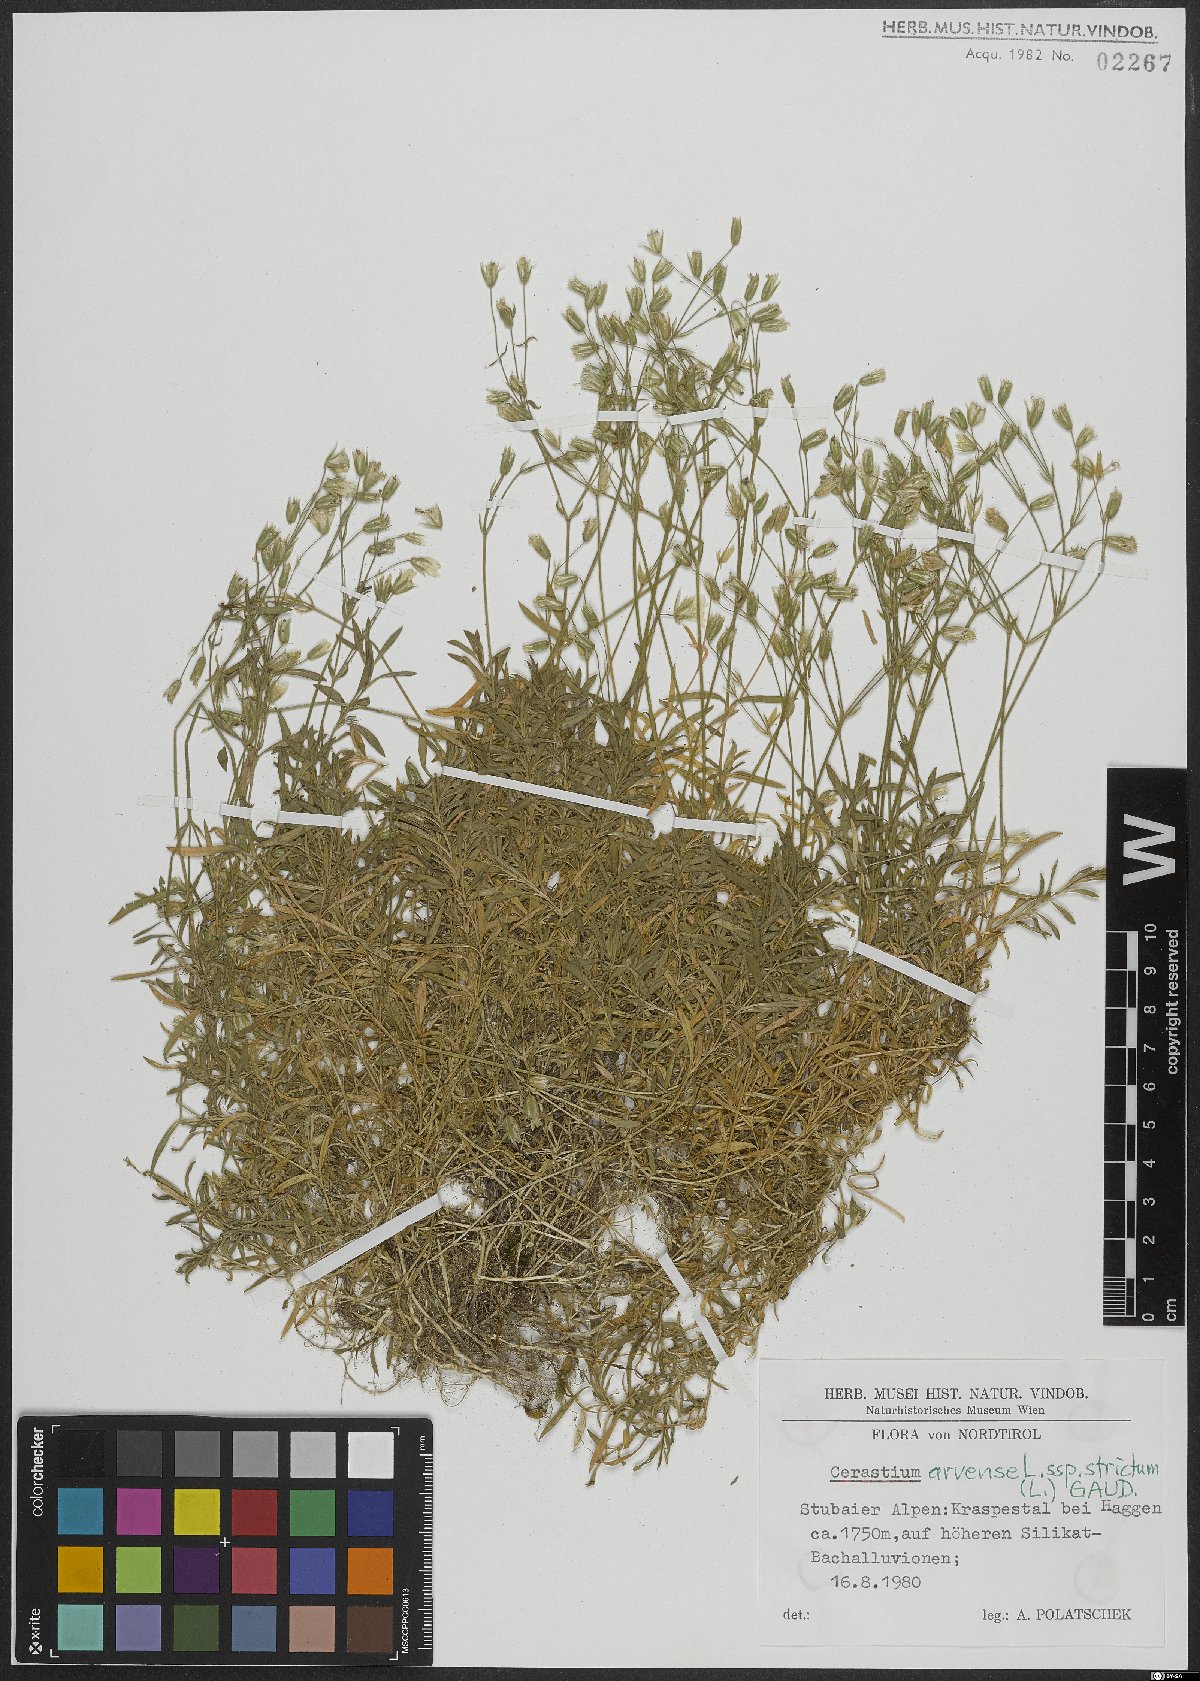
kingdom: Plantae
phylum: Tracheophyta
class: Magnoliopsida
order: Caryophyllales
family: Caryophyllaceae
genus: Cerastium
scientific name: Cerastium elongatum
